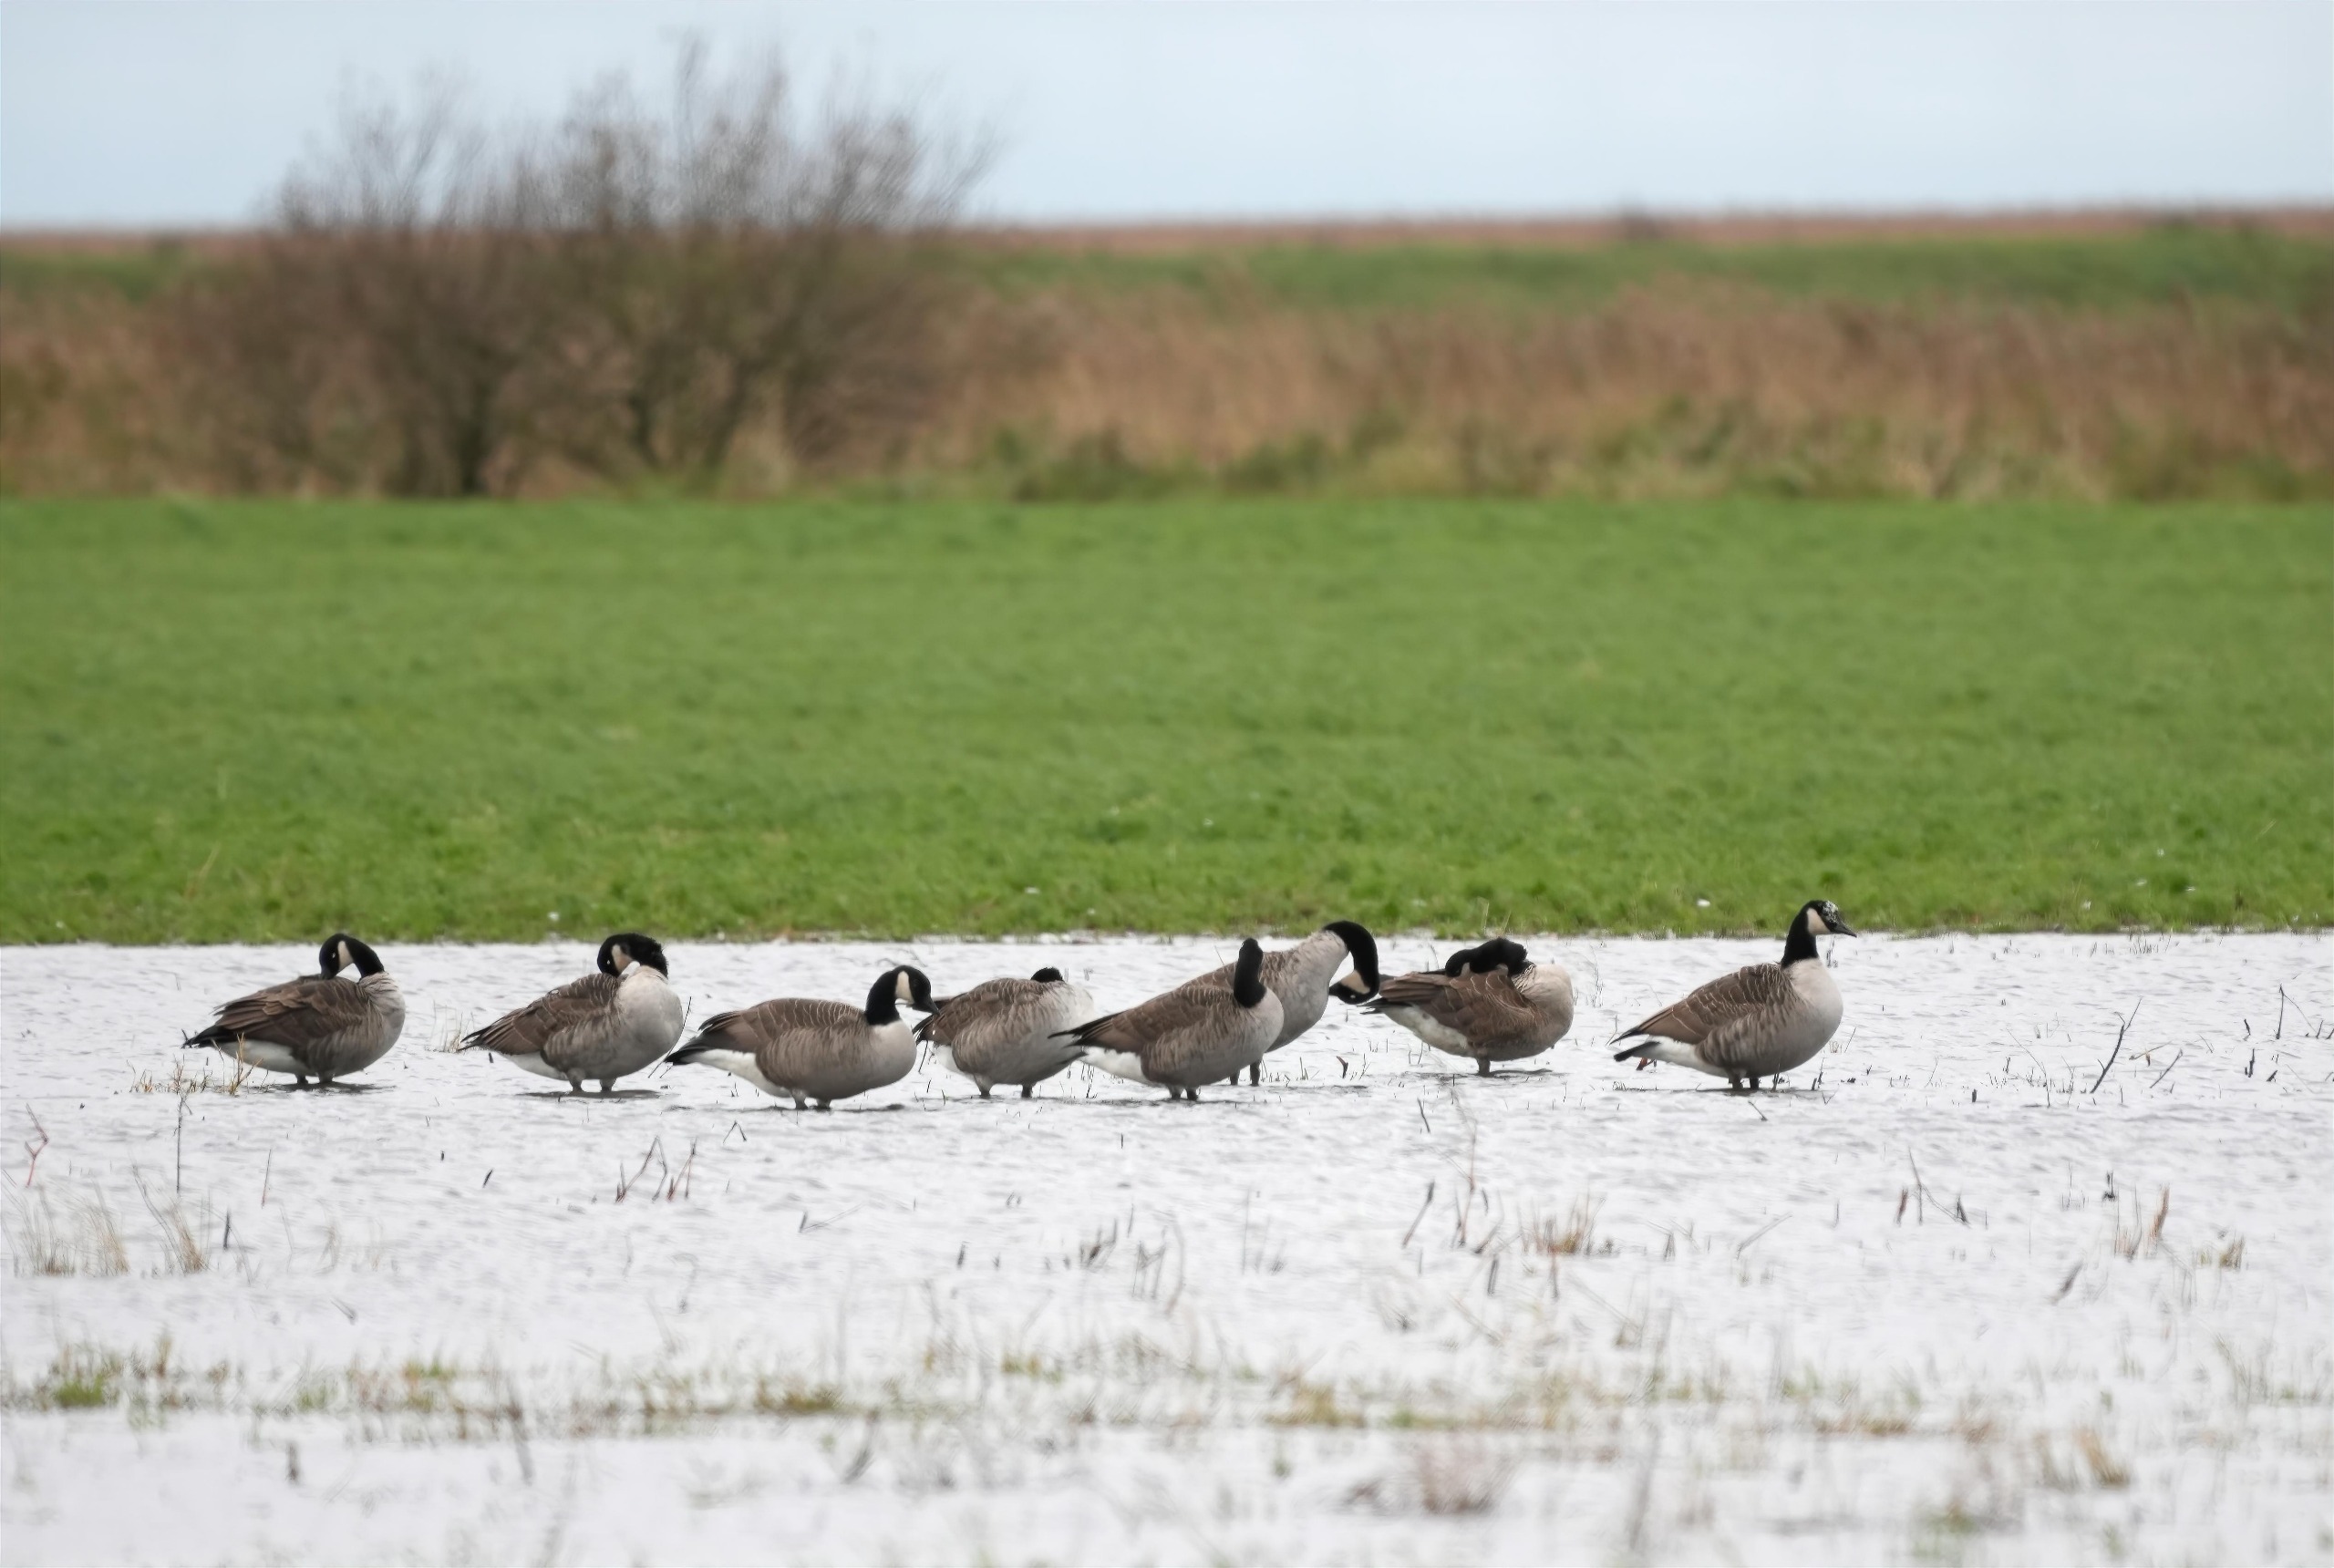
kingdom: Animalia
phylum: Chordata
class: Aves
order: Anseriformes
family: Anatidae
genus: Branta
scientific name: Branta canadensis
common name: Canadagås
